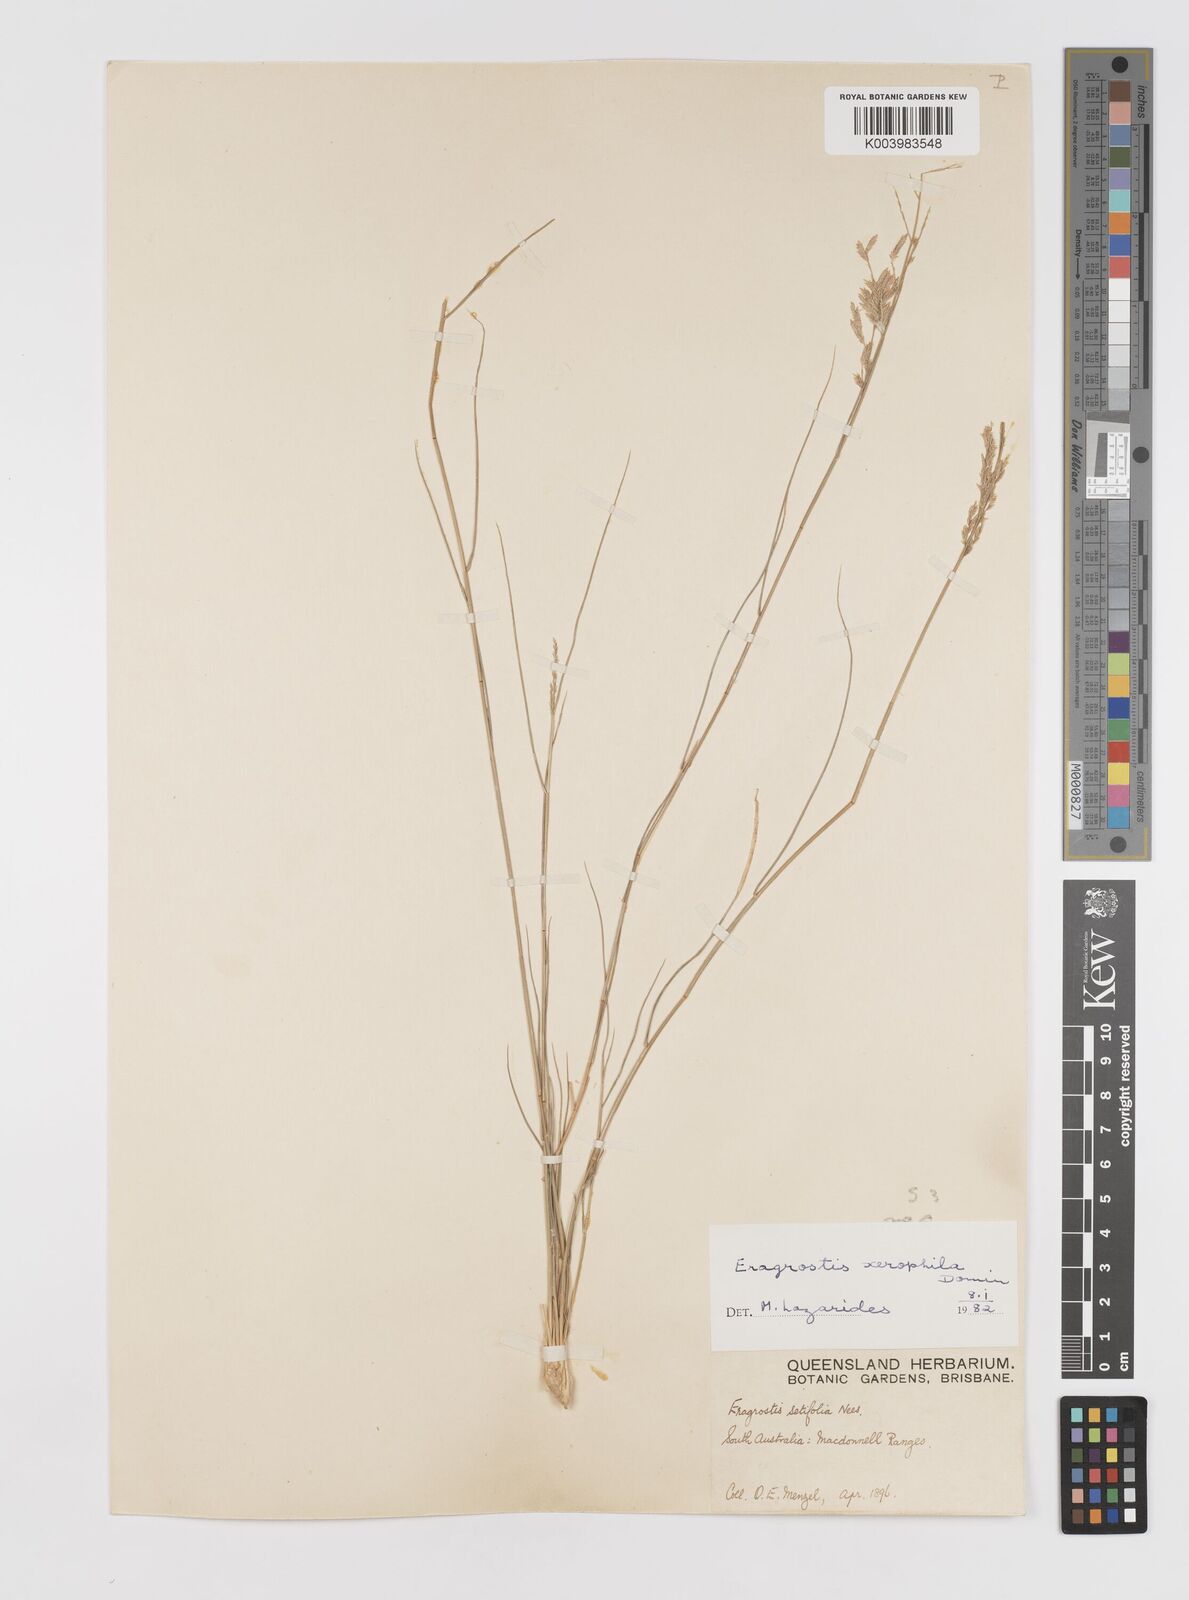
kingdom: Plantae
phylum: Tracheophyta
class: Liliopsida
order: Poales
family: Poaceae
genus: Eragrostis
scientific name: Eragrostis xerophila
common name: Wire wandarrie grass
